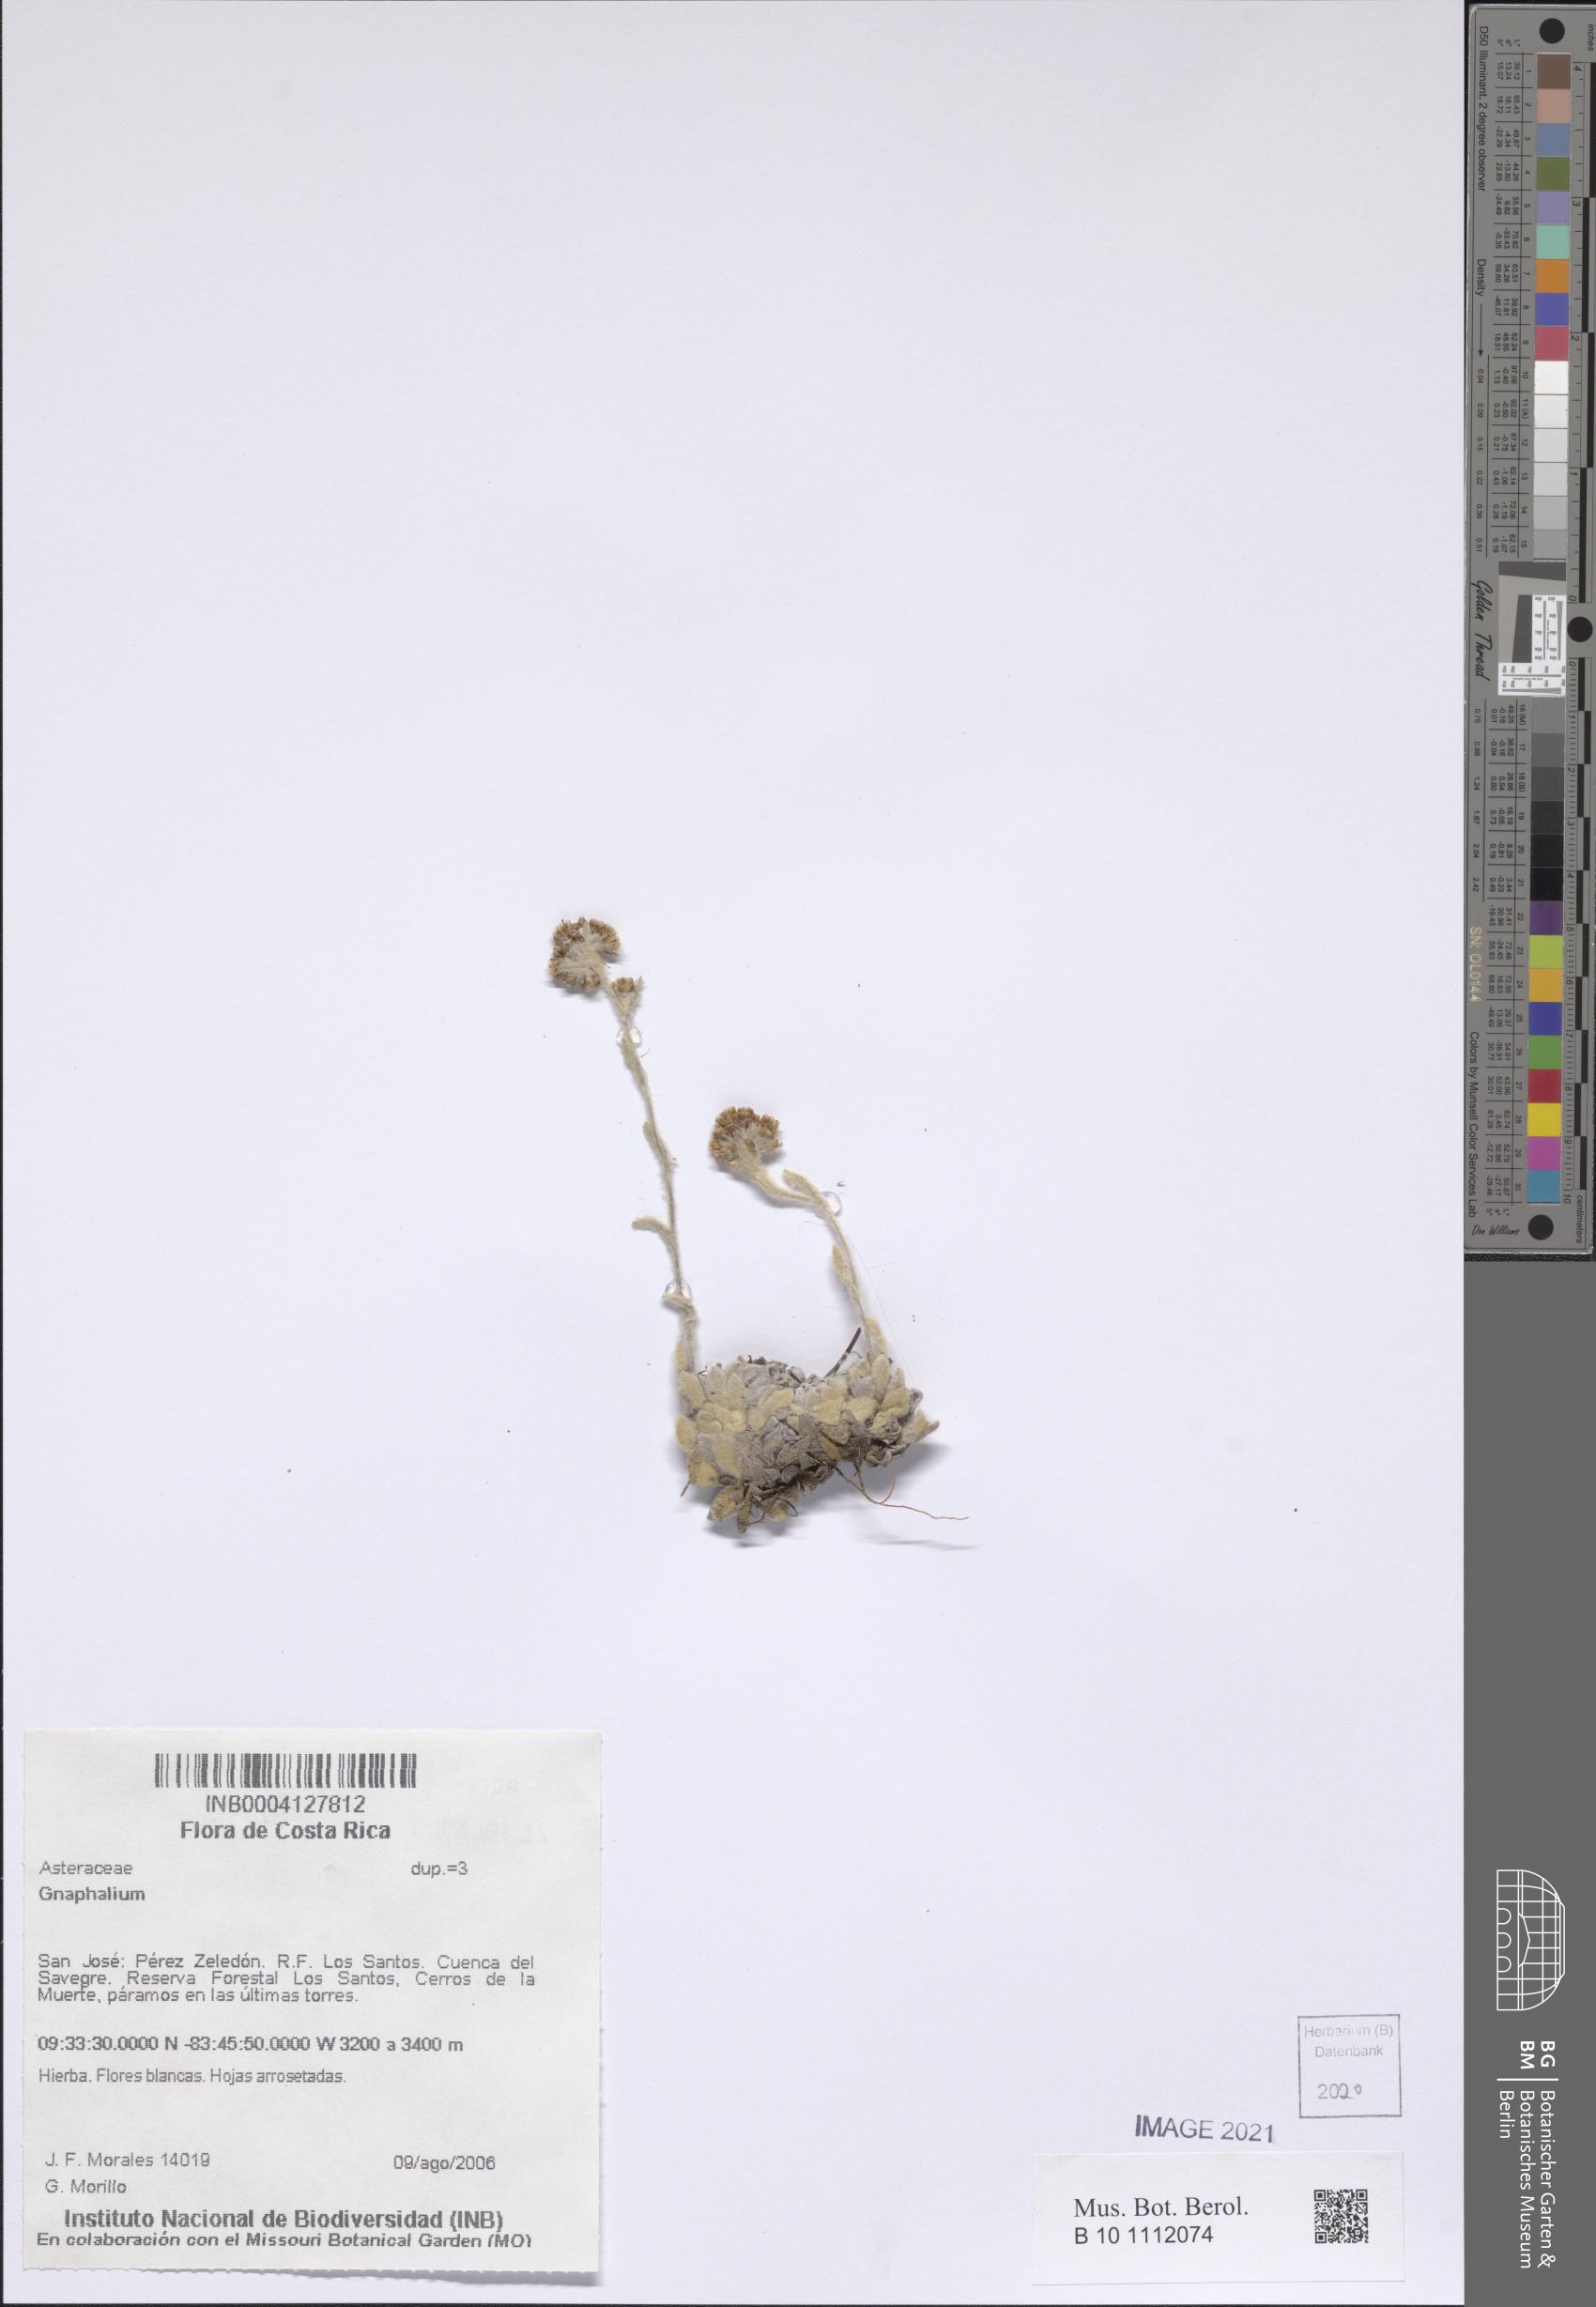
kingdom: Plantae
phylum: Tracheophyta
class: Magnoliopsida
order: Asterales
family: Asteraceae
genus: Gnaphalium
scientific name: Gnaphalium
